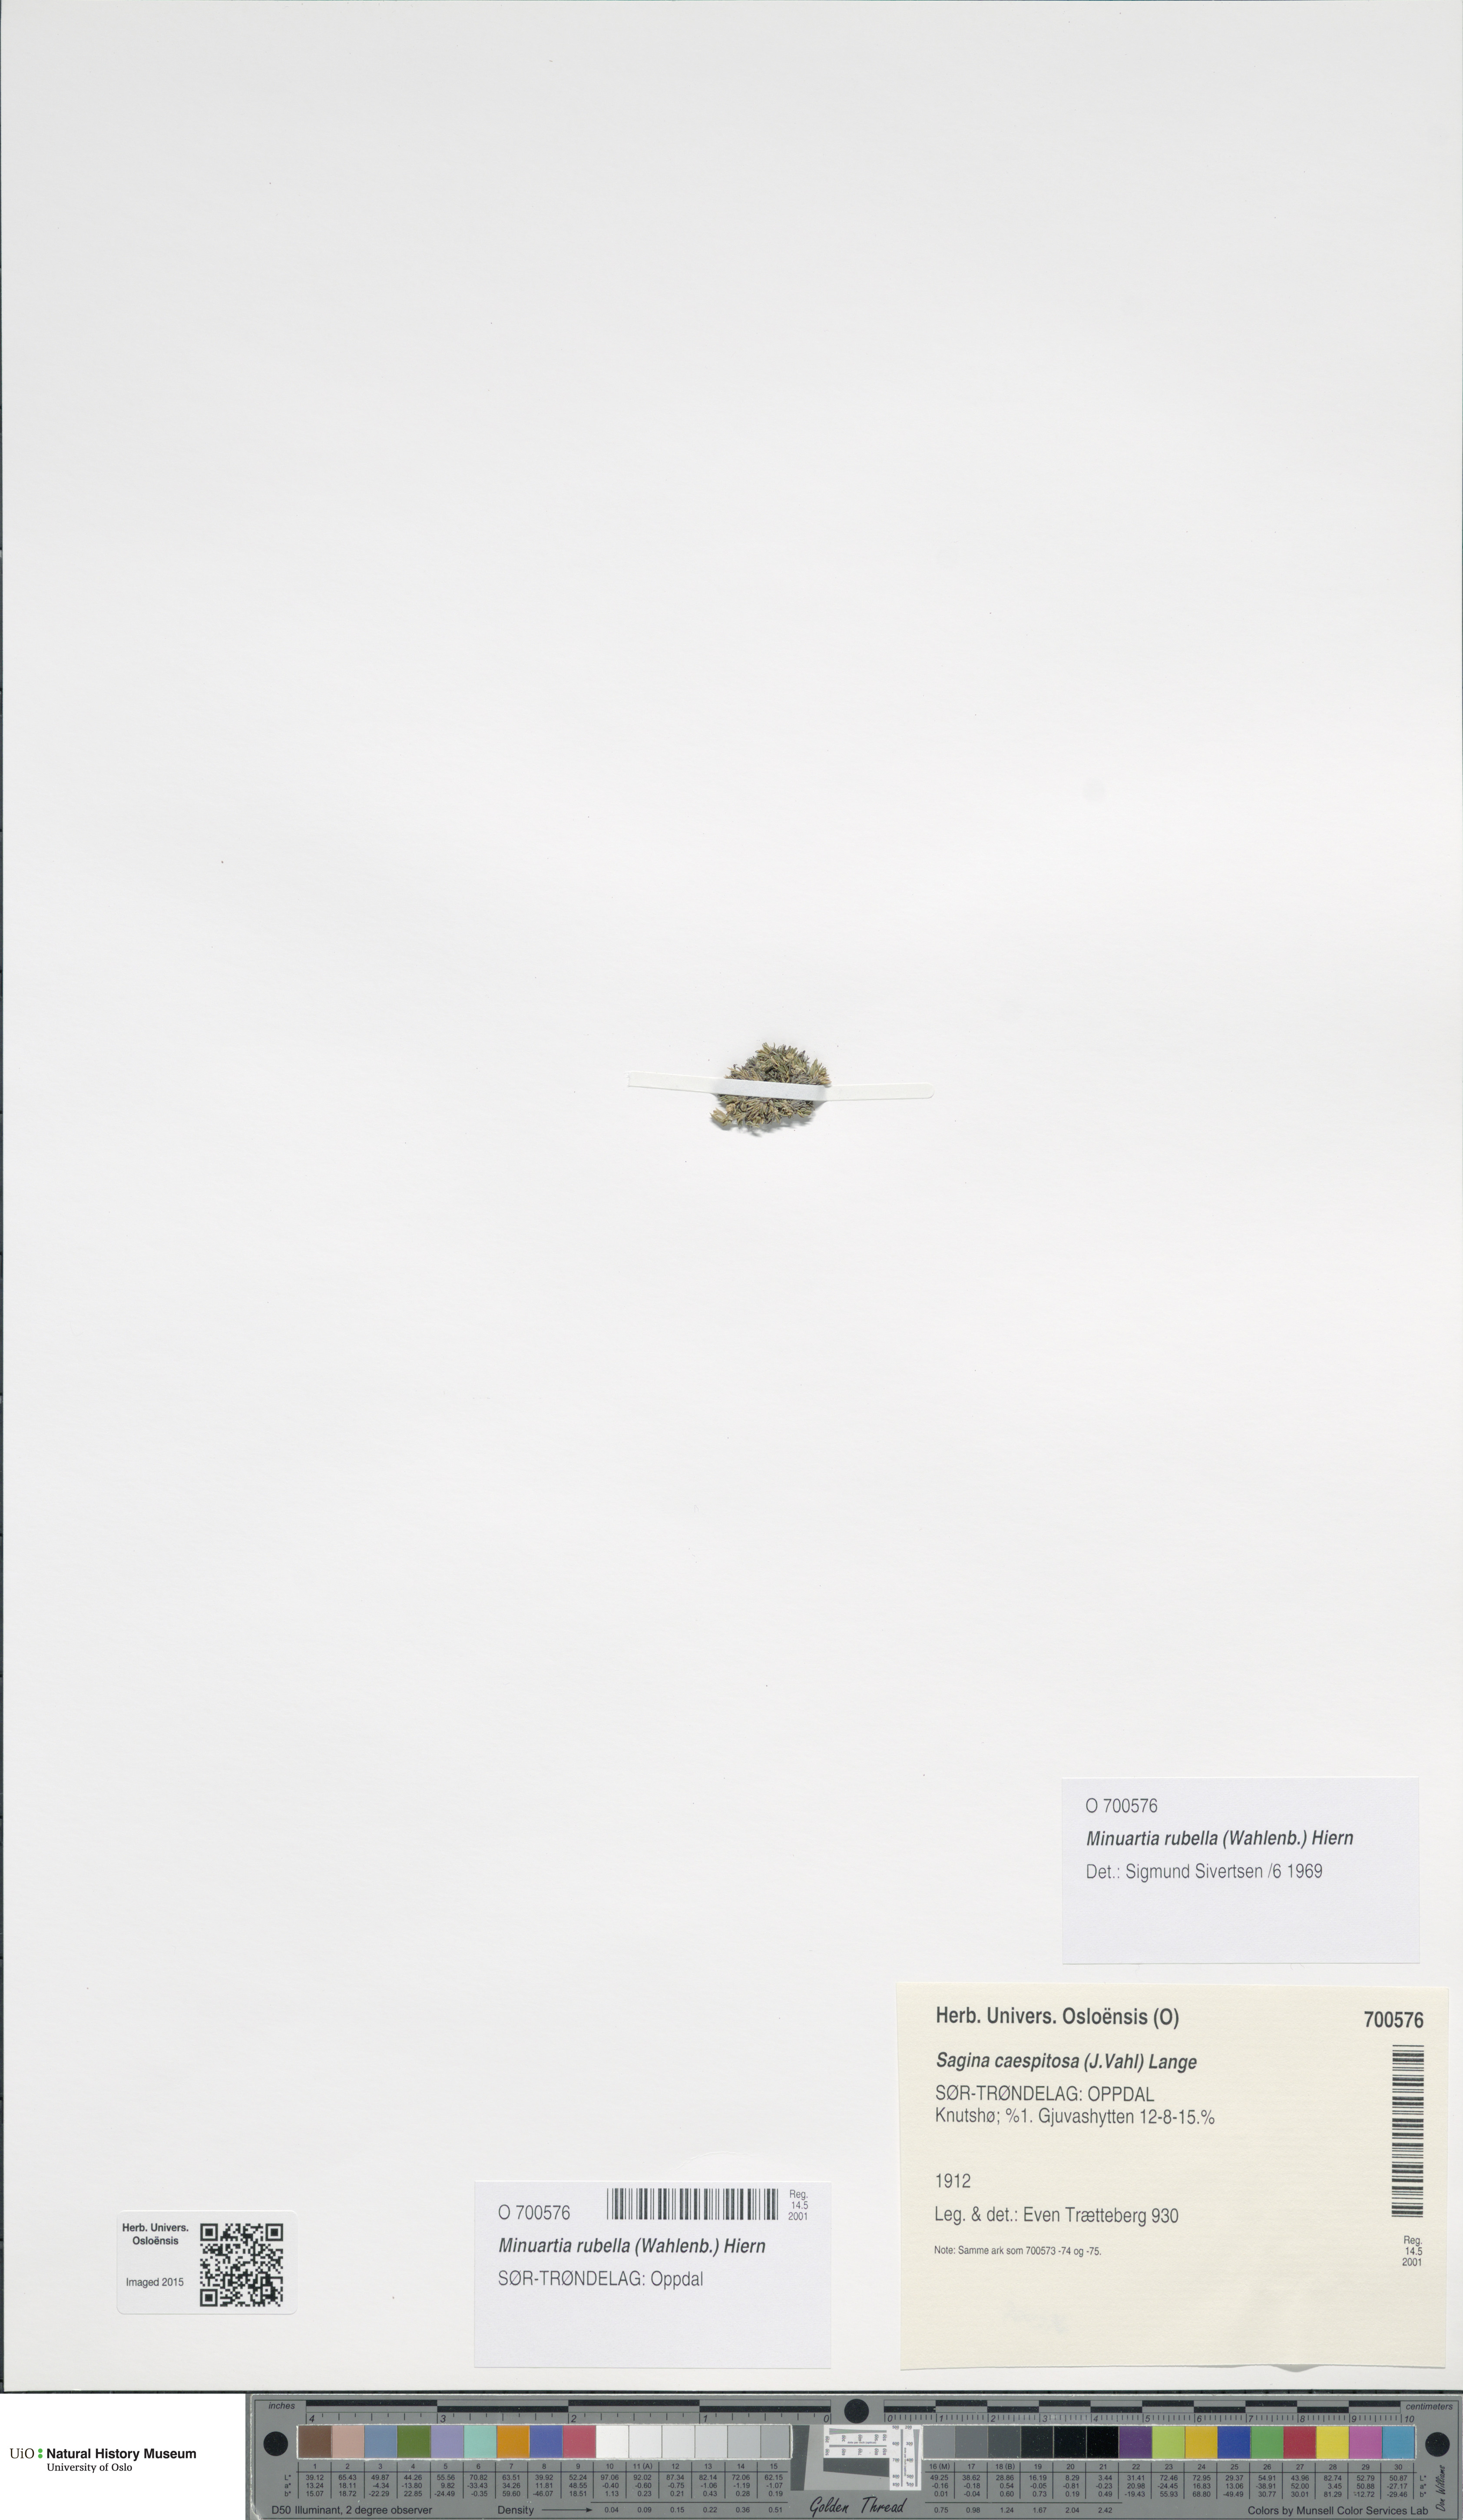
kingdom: Plantae
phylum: Tracheophyta
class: Magnoliopsida
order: Caryophyllales
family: Caryophyllaceae
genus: Sabulina
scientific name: Sabulina rubella
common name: Beautiful sandwort
